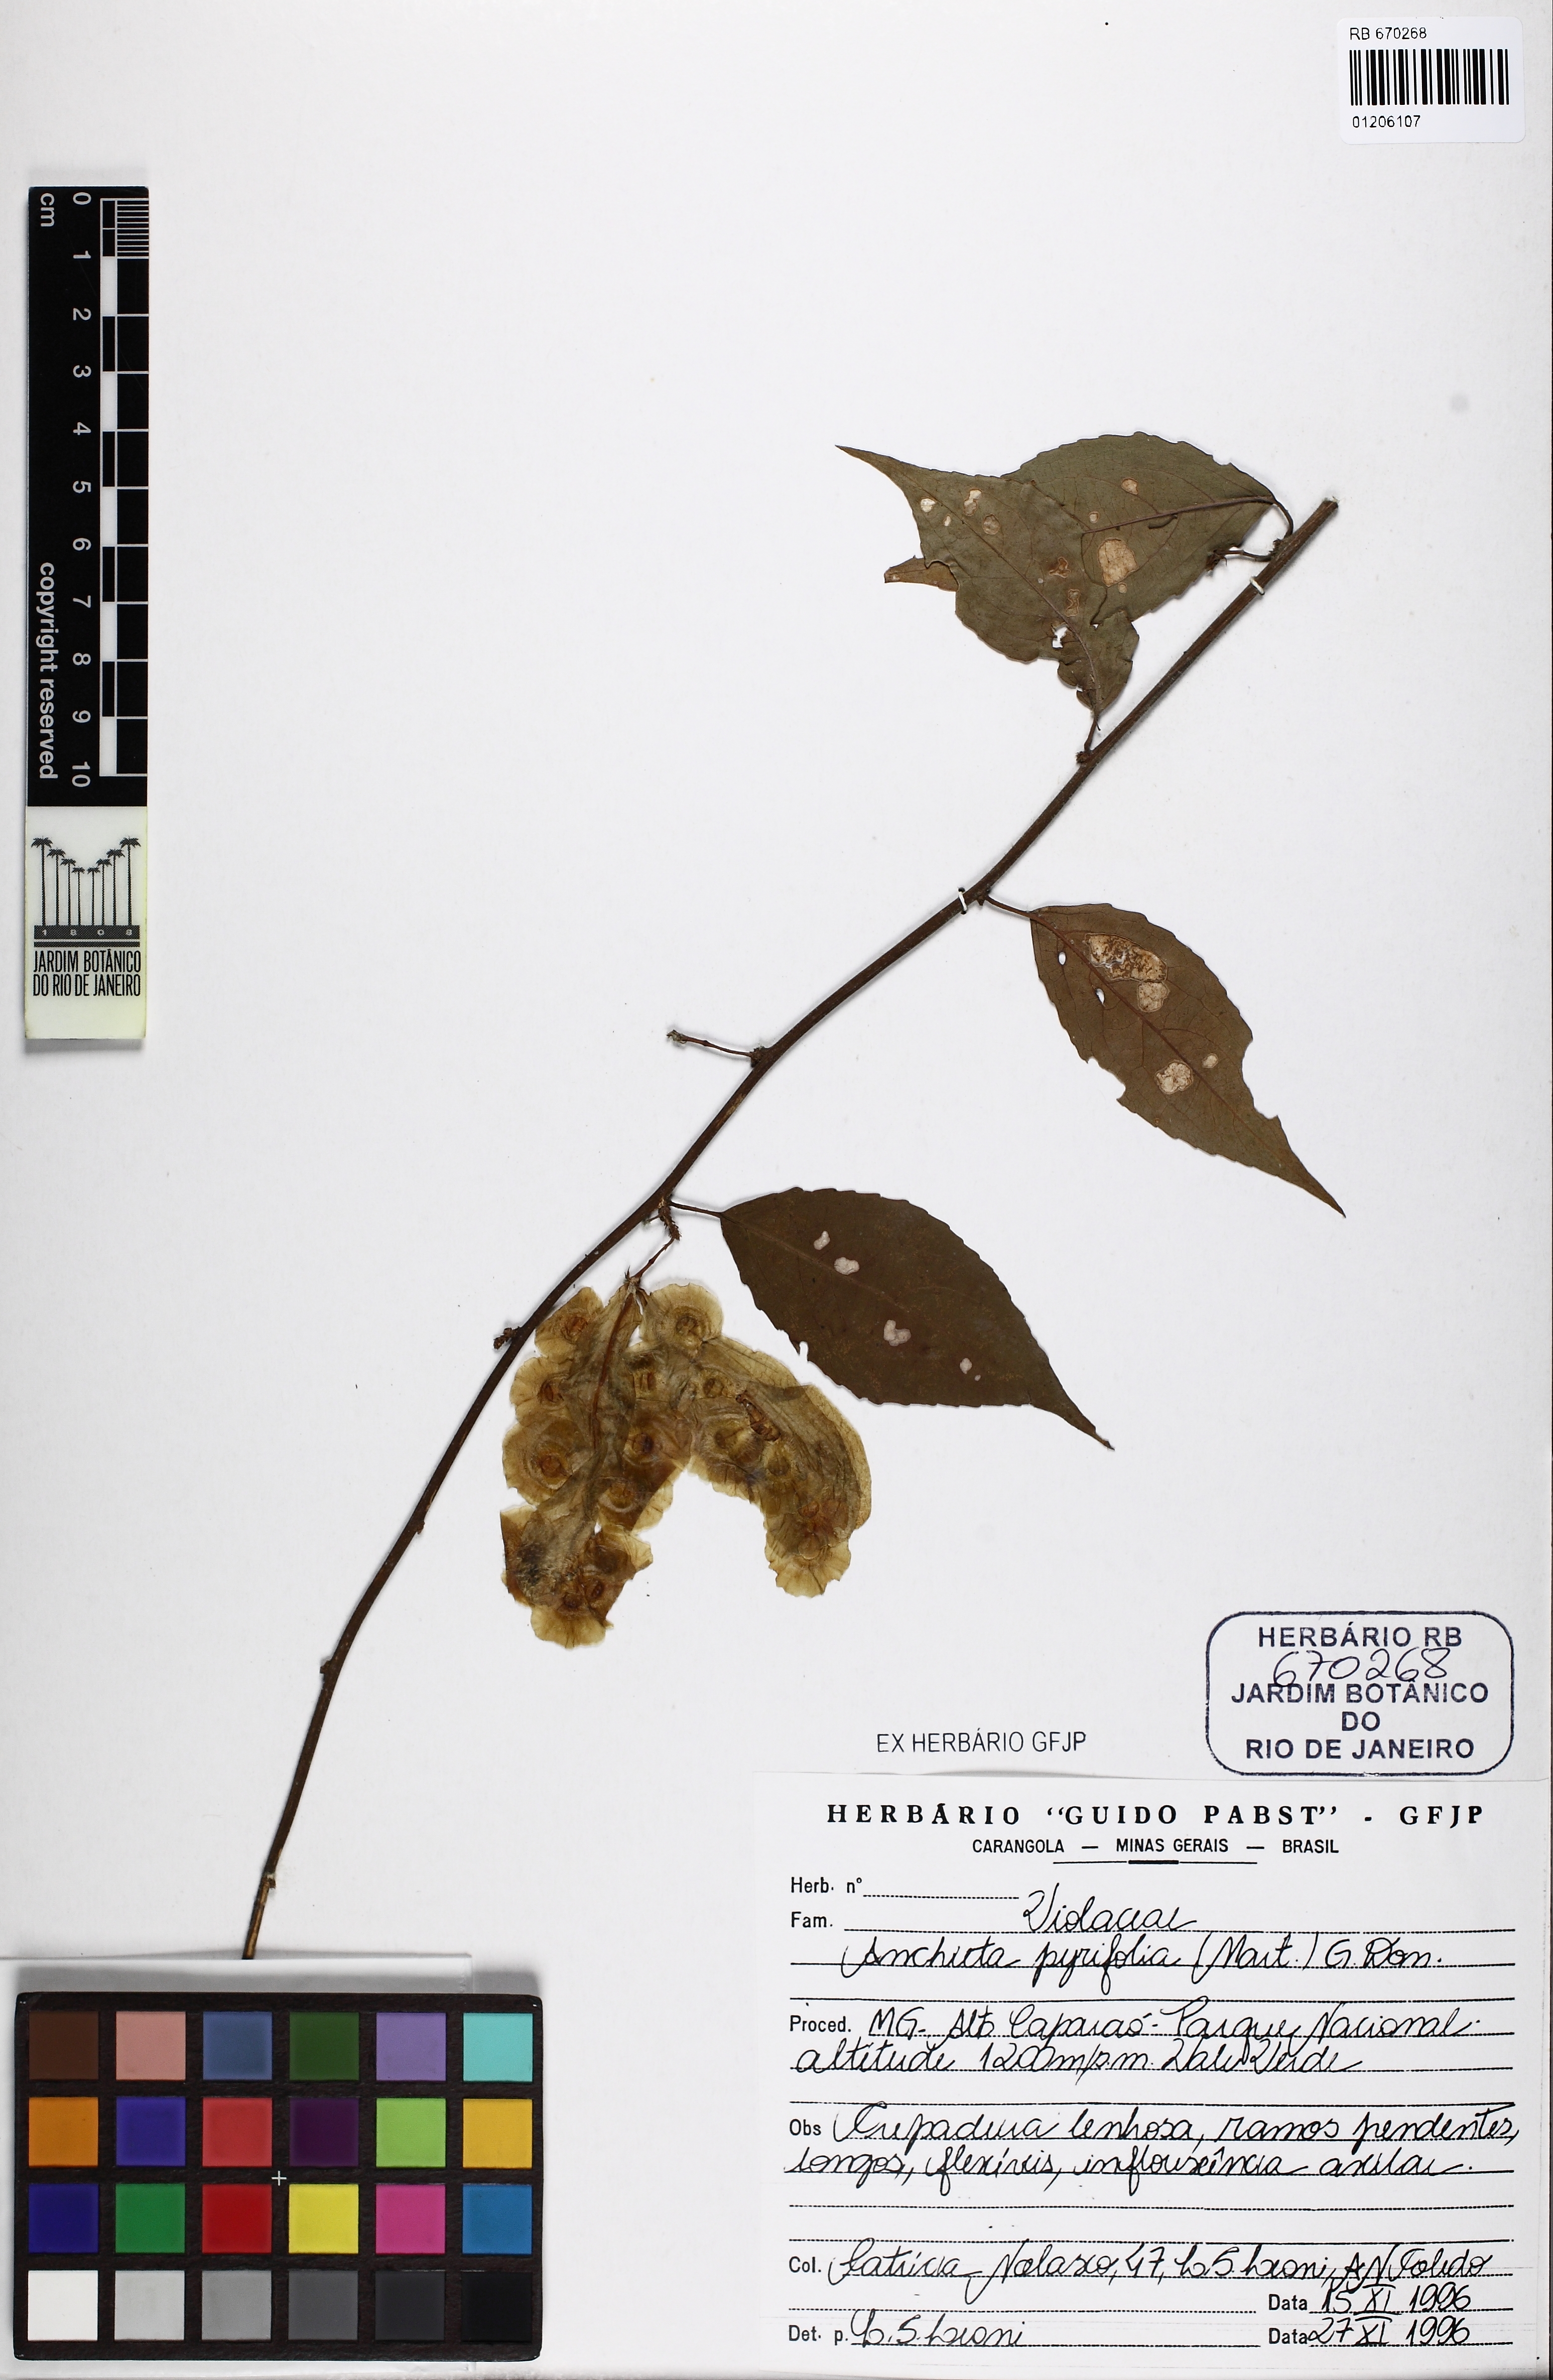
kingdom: Plantae
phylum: Tracheophyta
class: Magnoliopsida
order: Malpighiales
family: Violaceae
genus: Anchietea
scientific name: Anchietea pyrifolia
